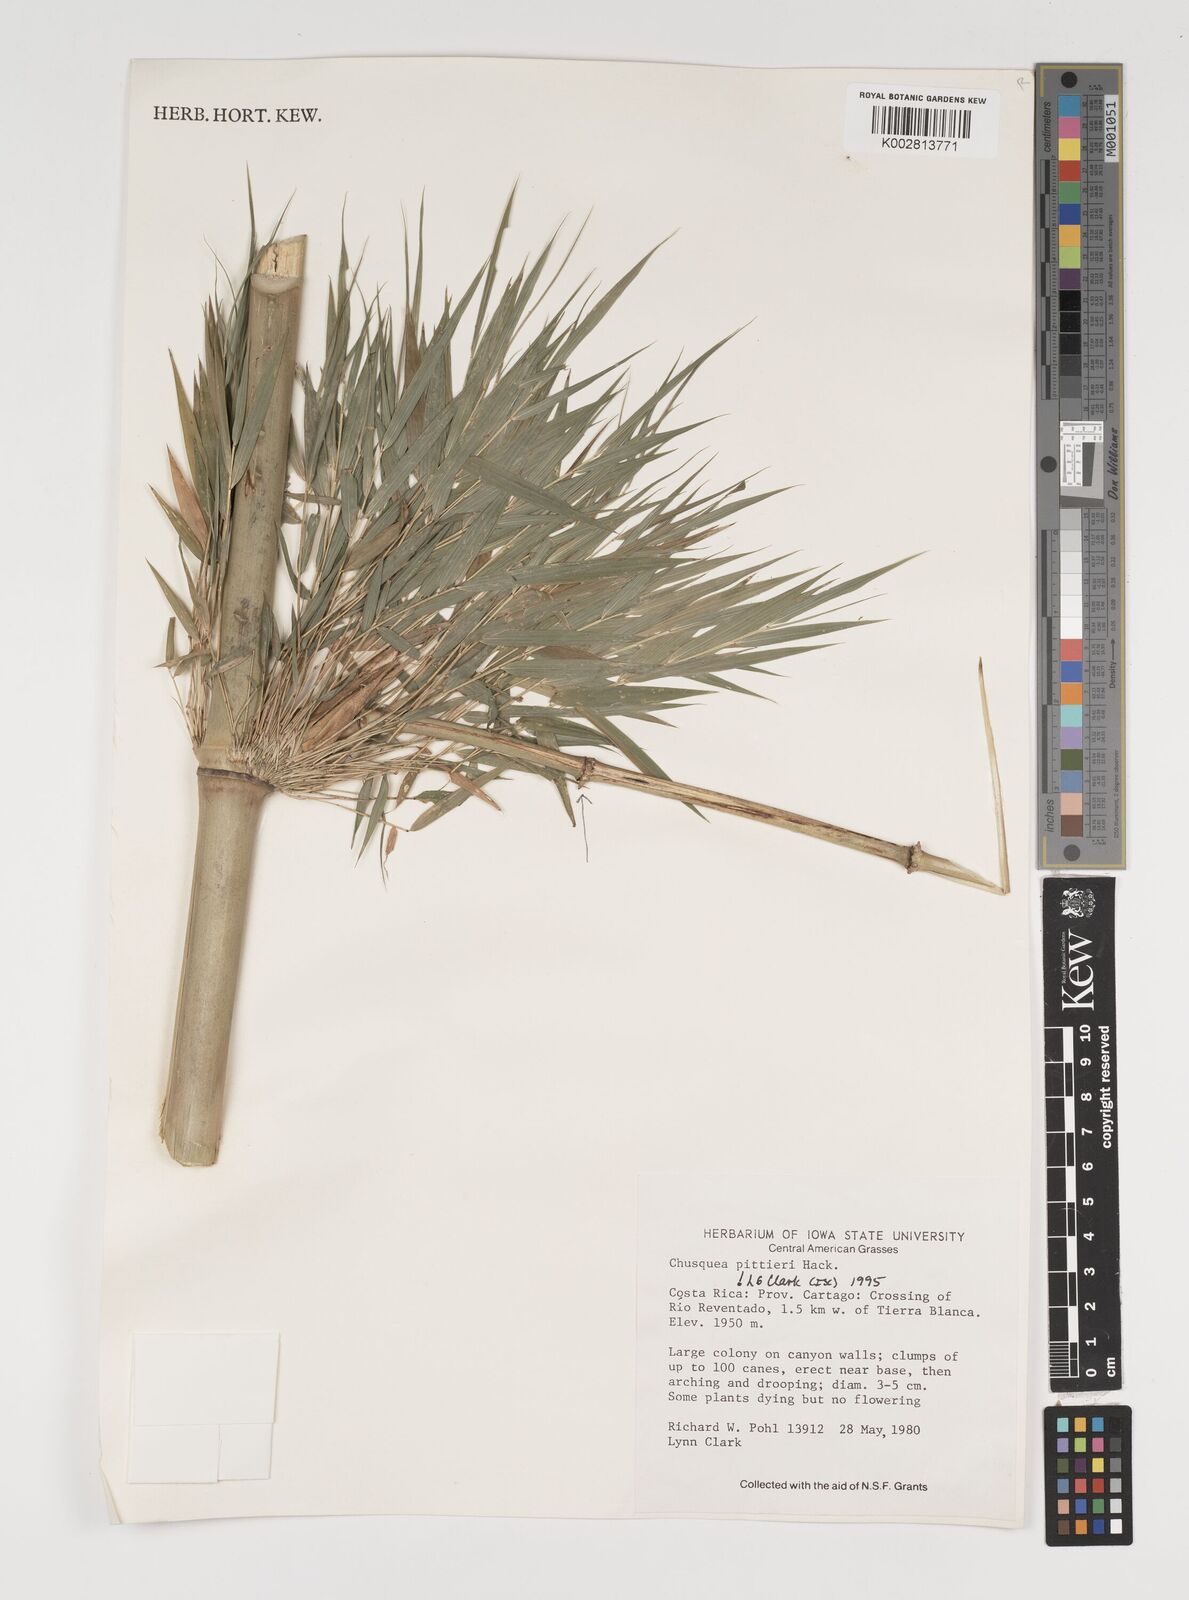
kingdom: Plantae
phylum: Tracheophyta
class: Liliopsida
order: Poales
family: Poaceae
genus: Chusquea
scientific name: Chusquea pittieri
